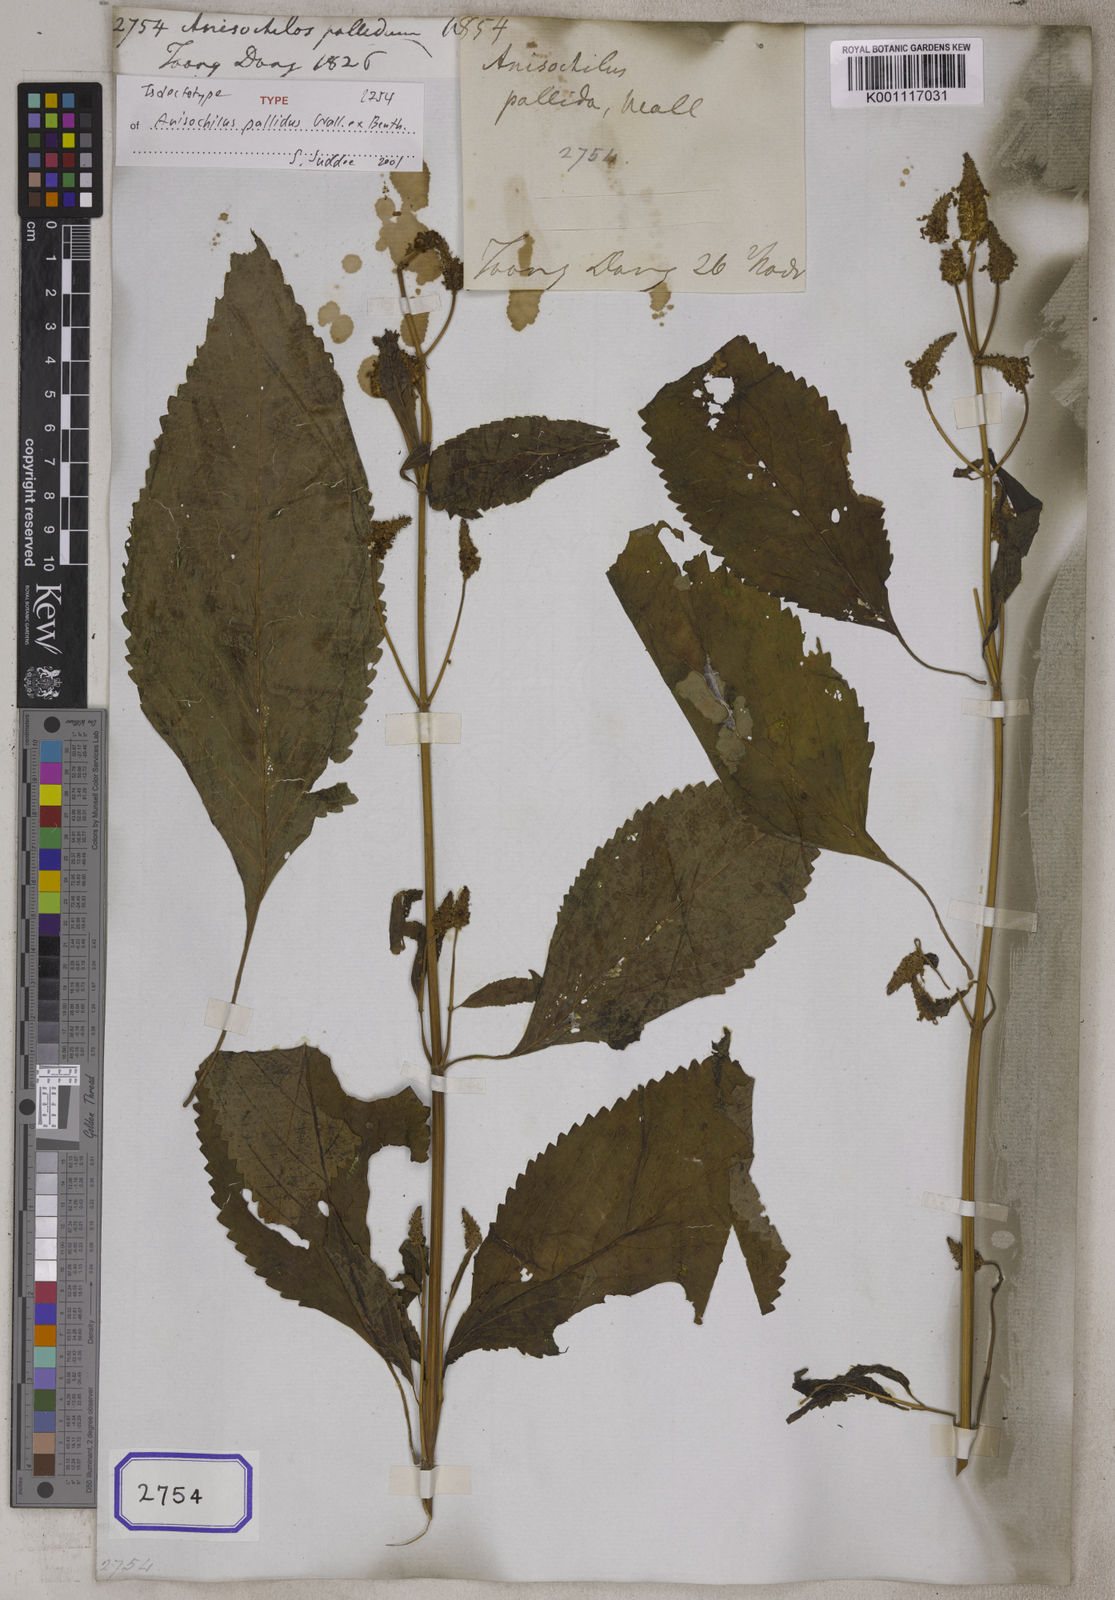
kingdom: Plantae
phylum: Tracheophyta
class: Magnoliopsida
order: Lamiales
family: Lamiaceae
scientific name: Lamiaceae
